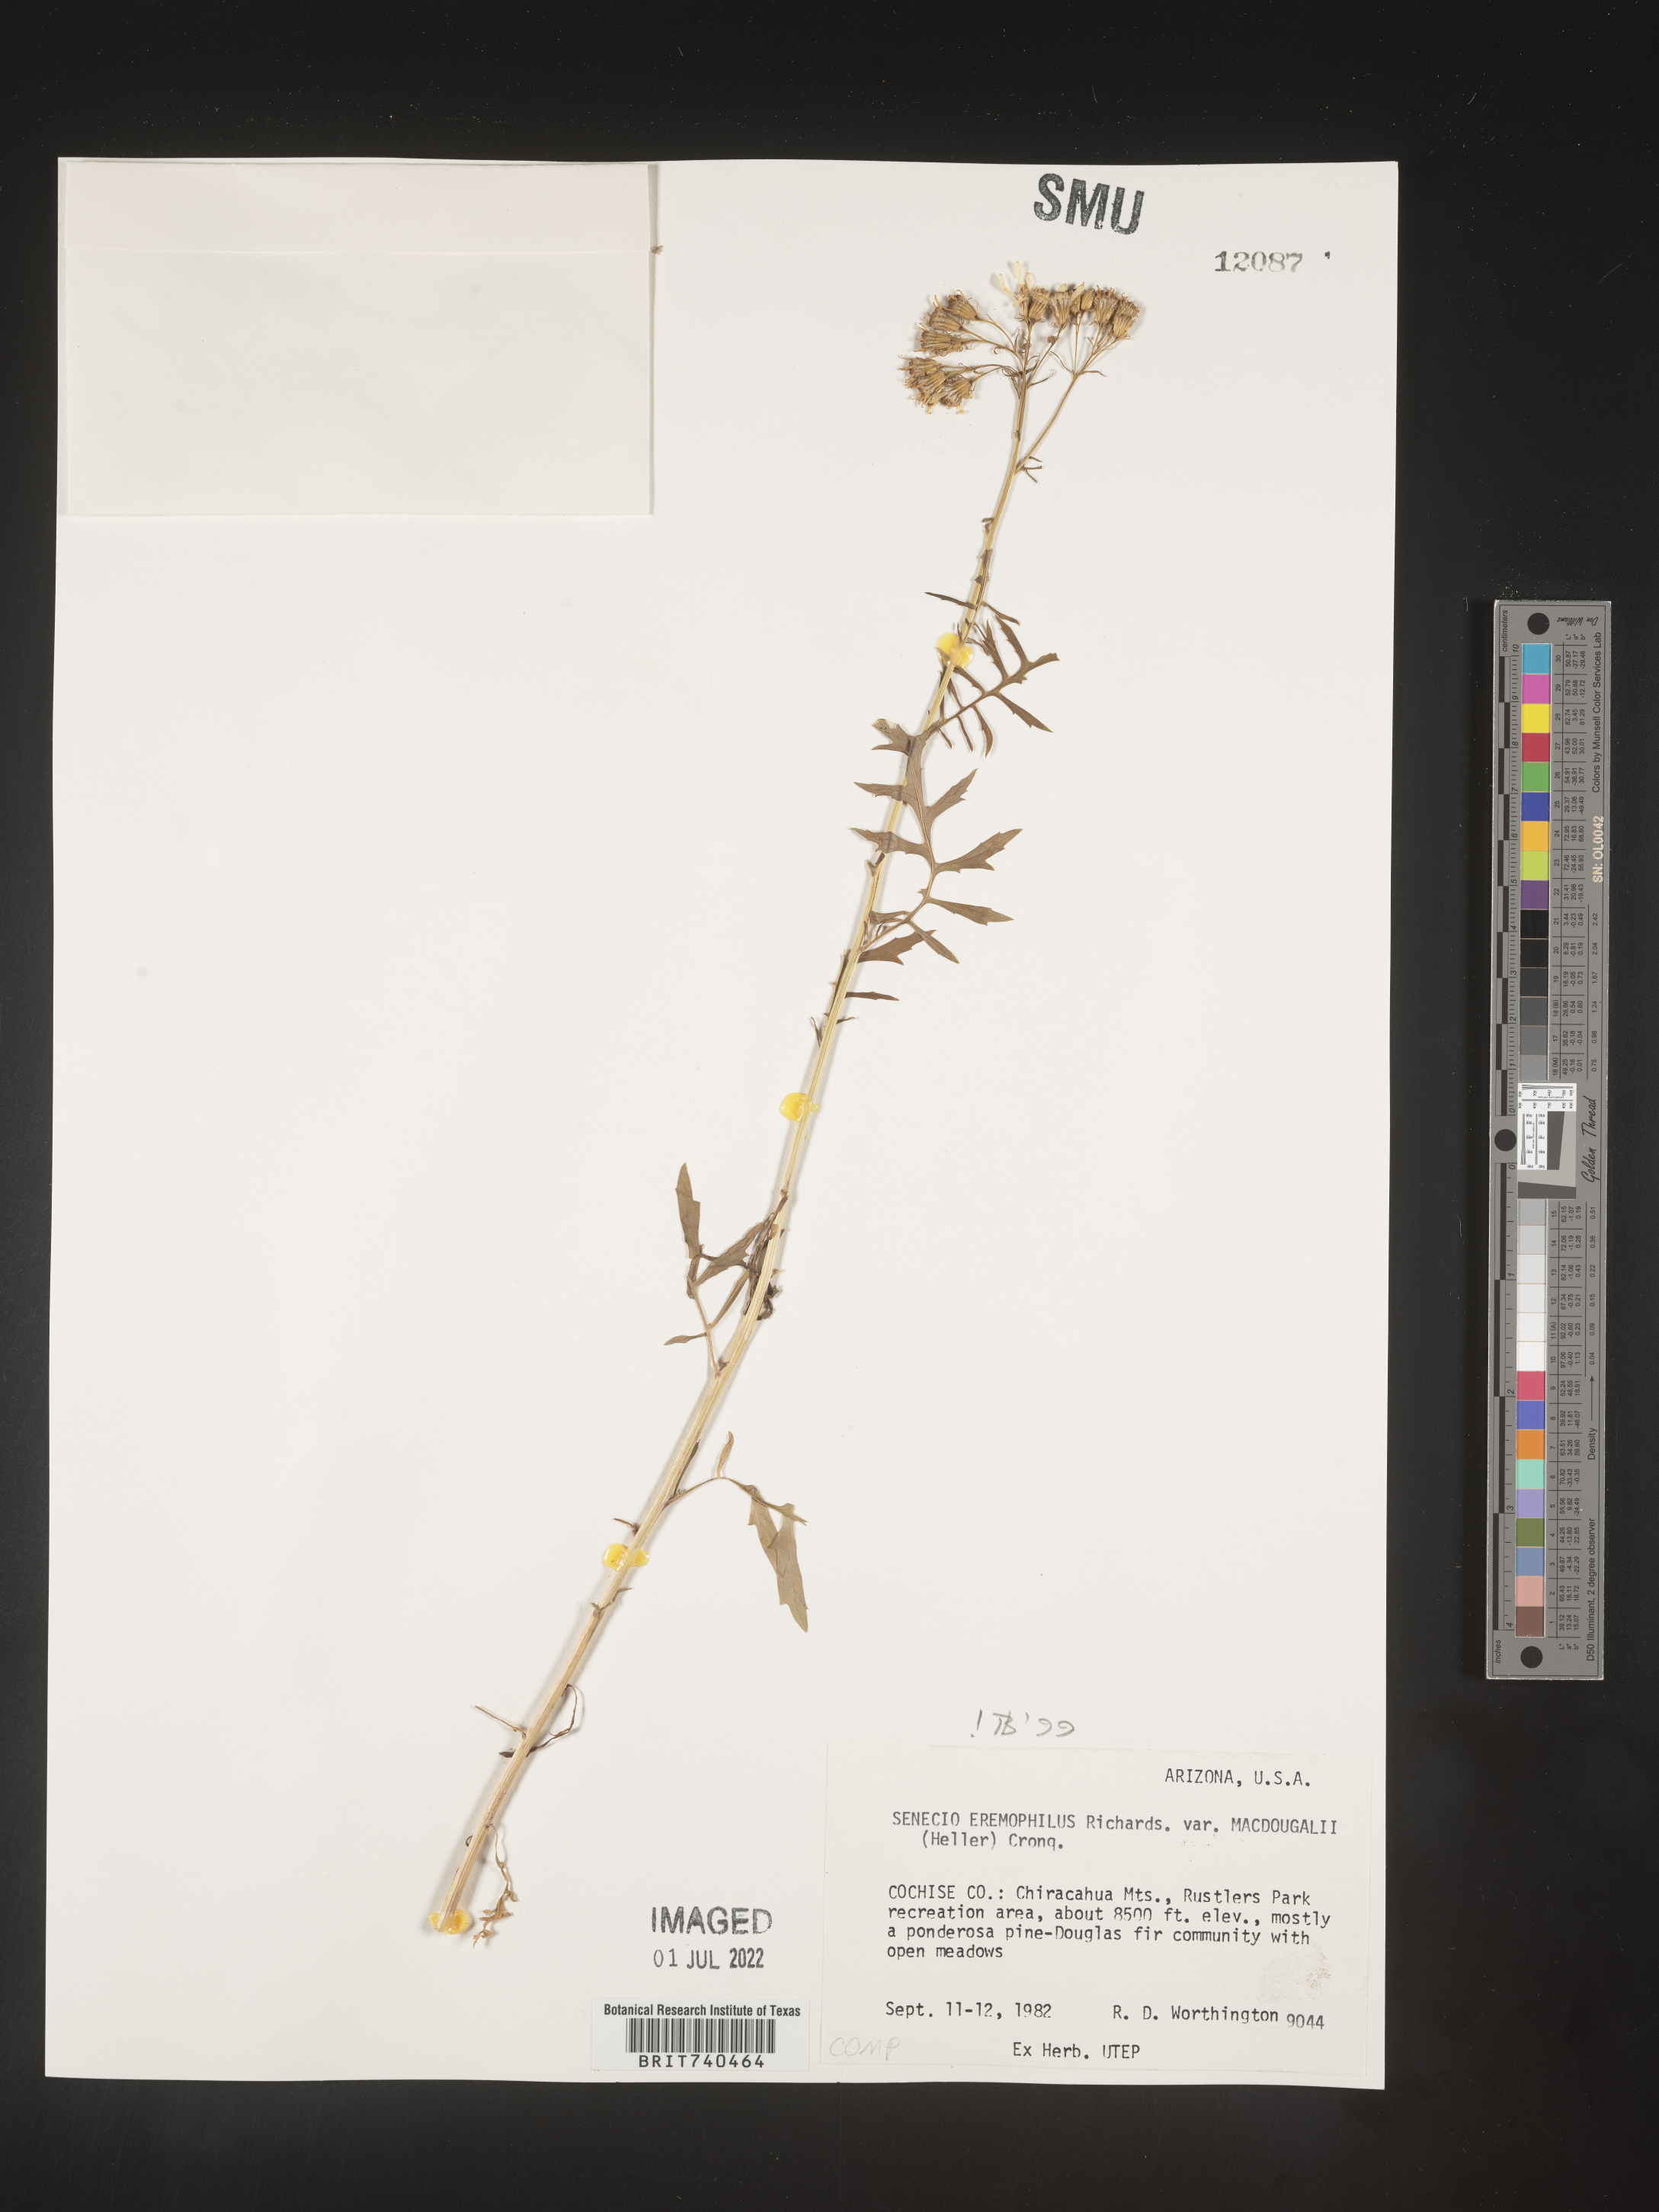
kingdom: Plantae
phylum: Tracheophyta
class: Magnoliopsida
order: Asterales
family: Asteraceae
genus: Senecio
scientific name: Senecio eremophilus
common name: Desert ragwort
